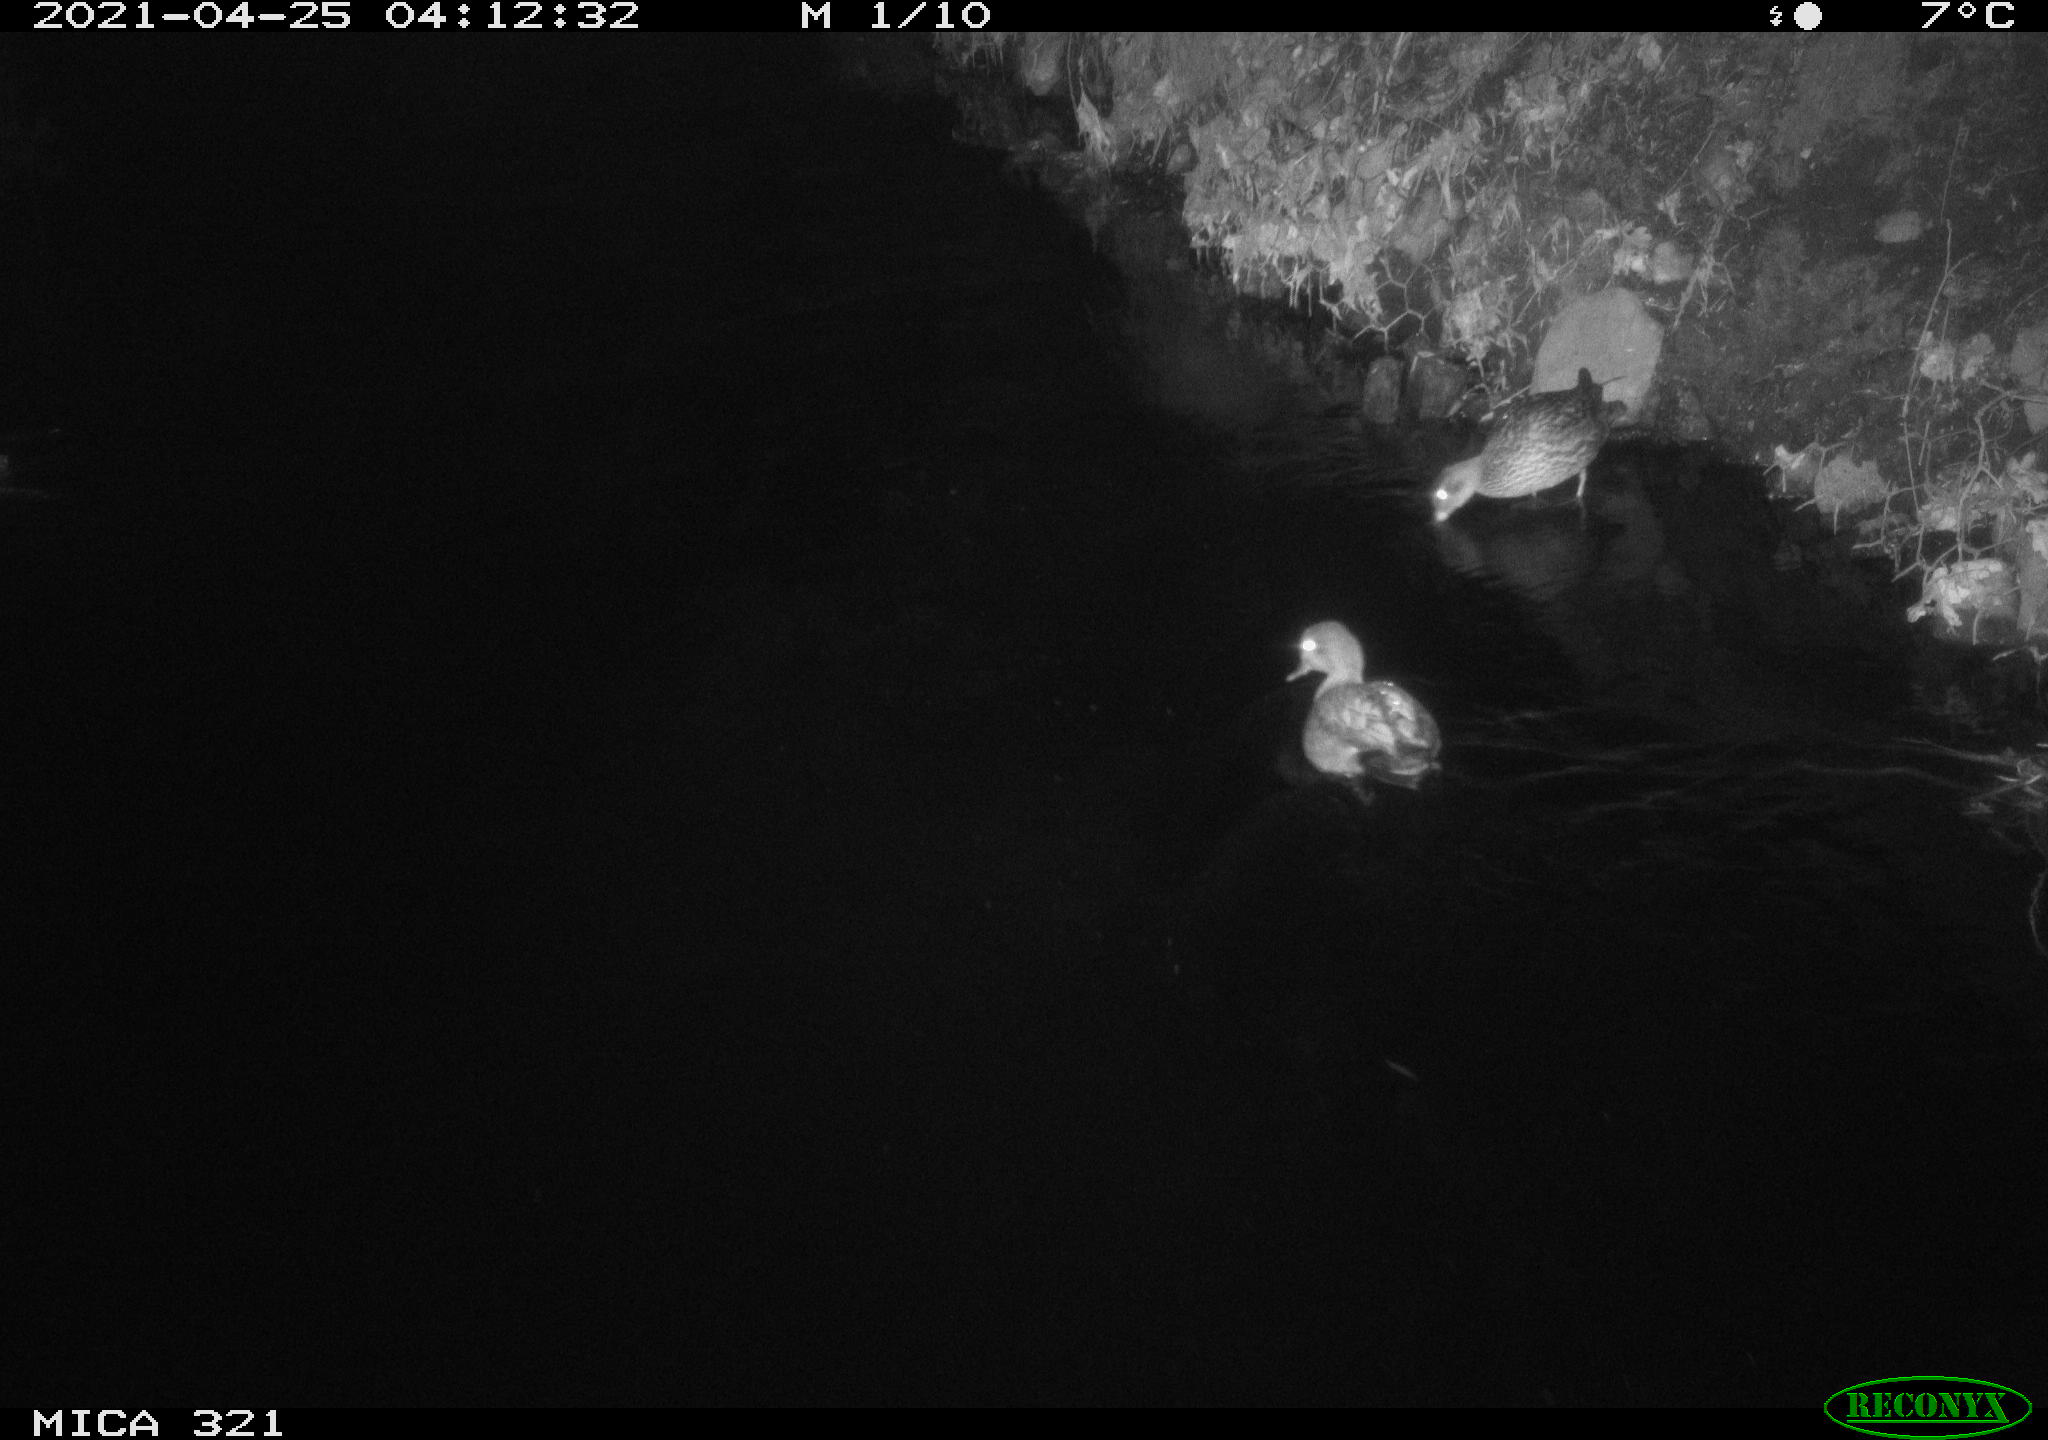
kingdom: Animalia
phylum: Chordata
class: Aves
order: Anseriformes
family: Anatidae
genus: Anas
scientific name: Anas
